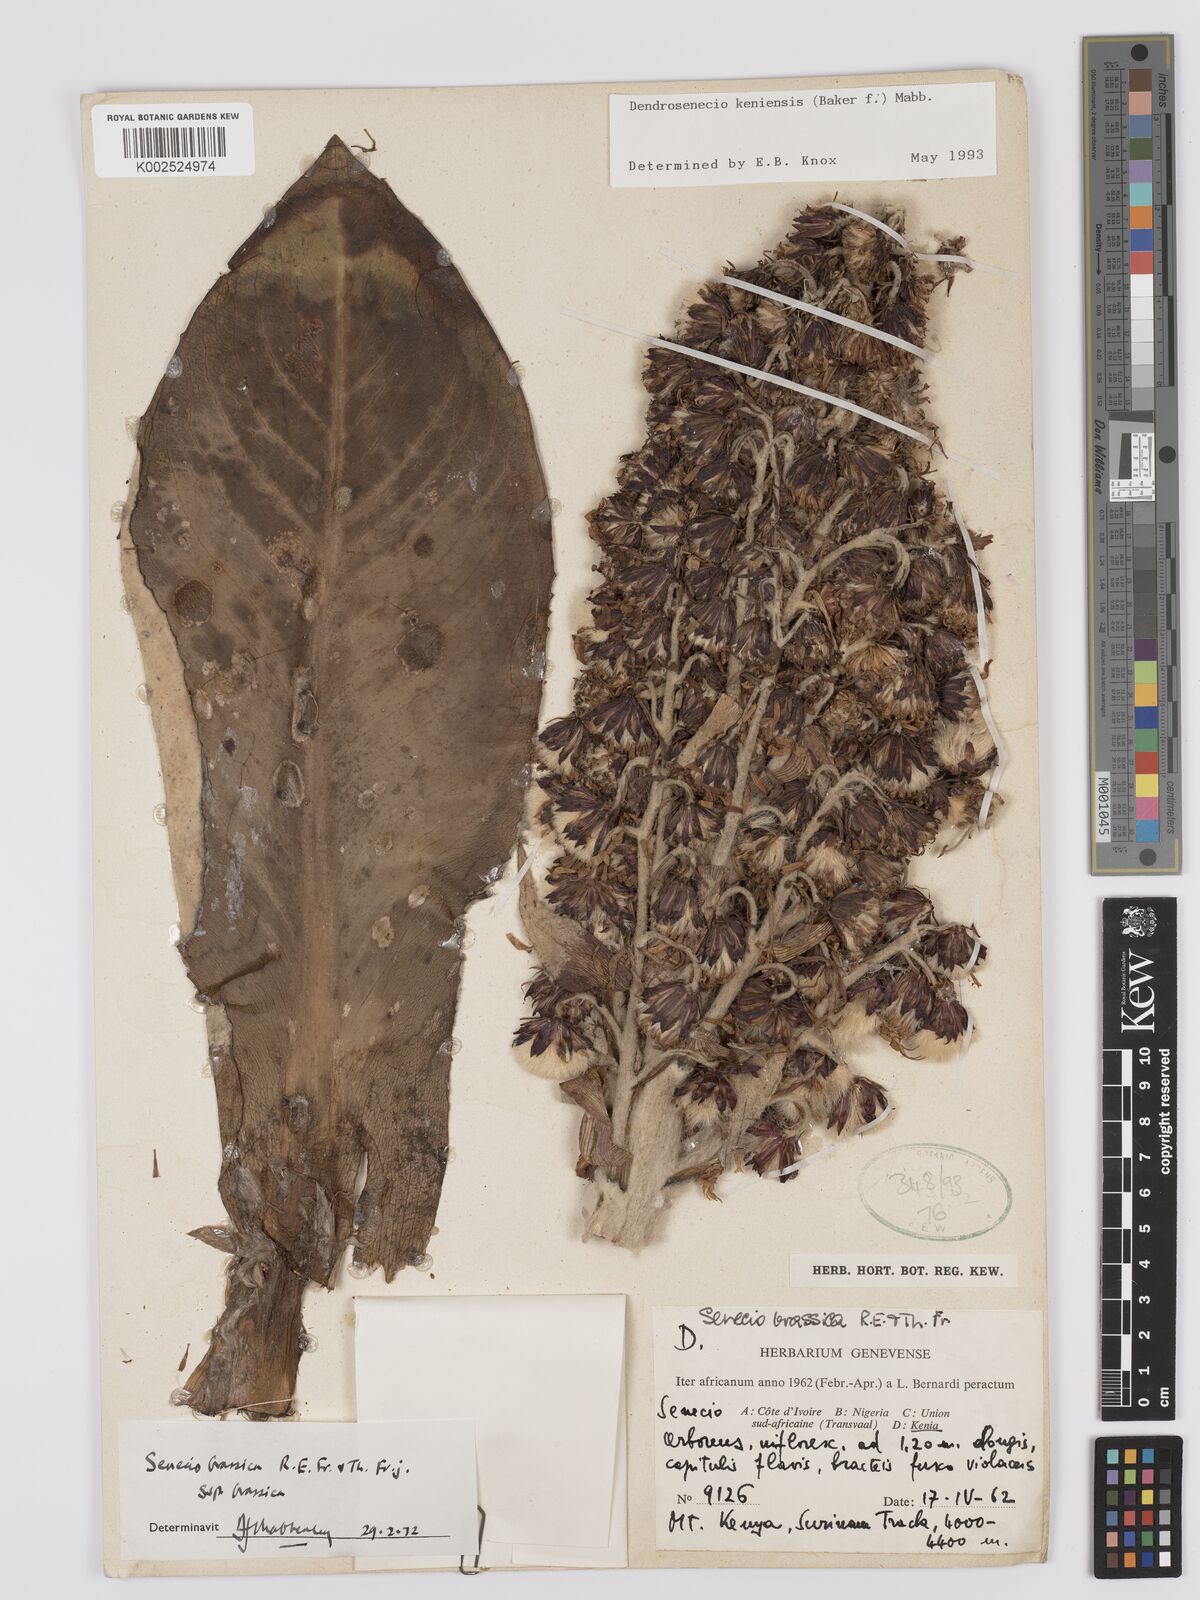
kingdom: Plantae
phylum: Tracheophyta
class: Magnoliopsida
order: Asterales
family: Asteraceae
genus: Dendrosenecio
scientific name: Dendrosenecio keniensis
